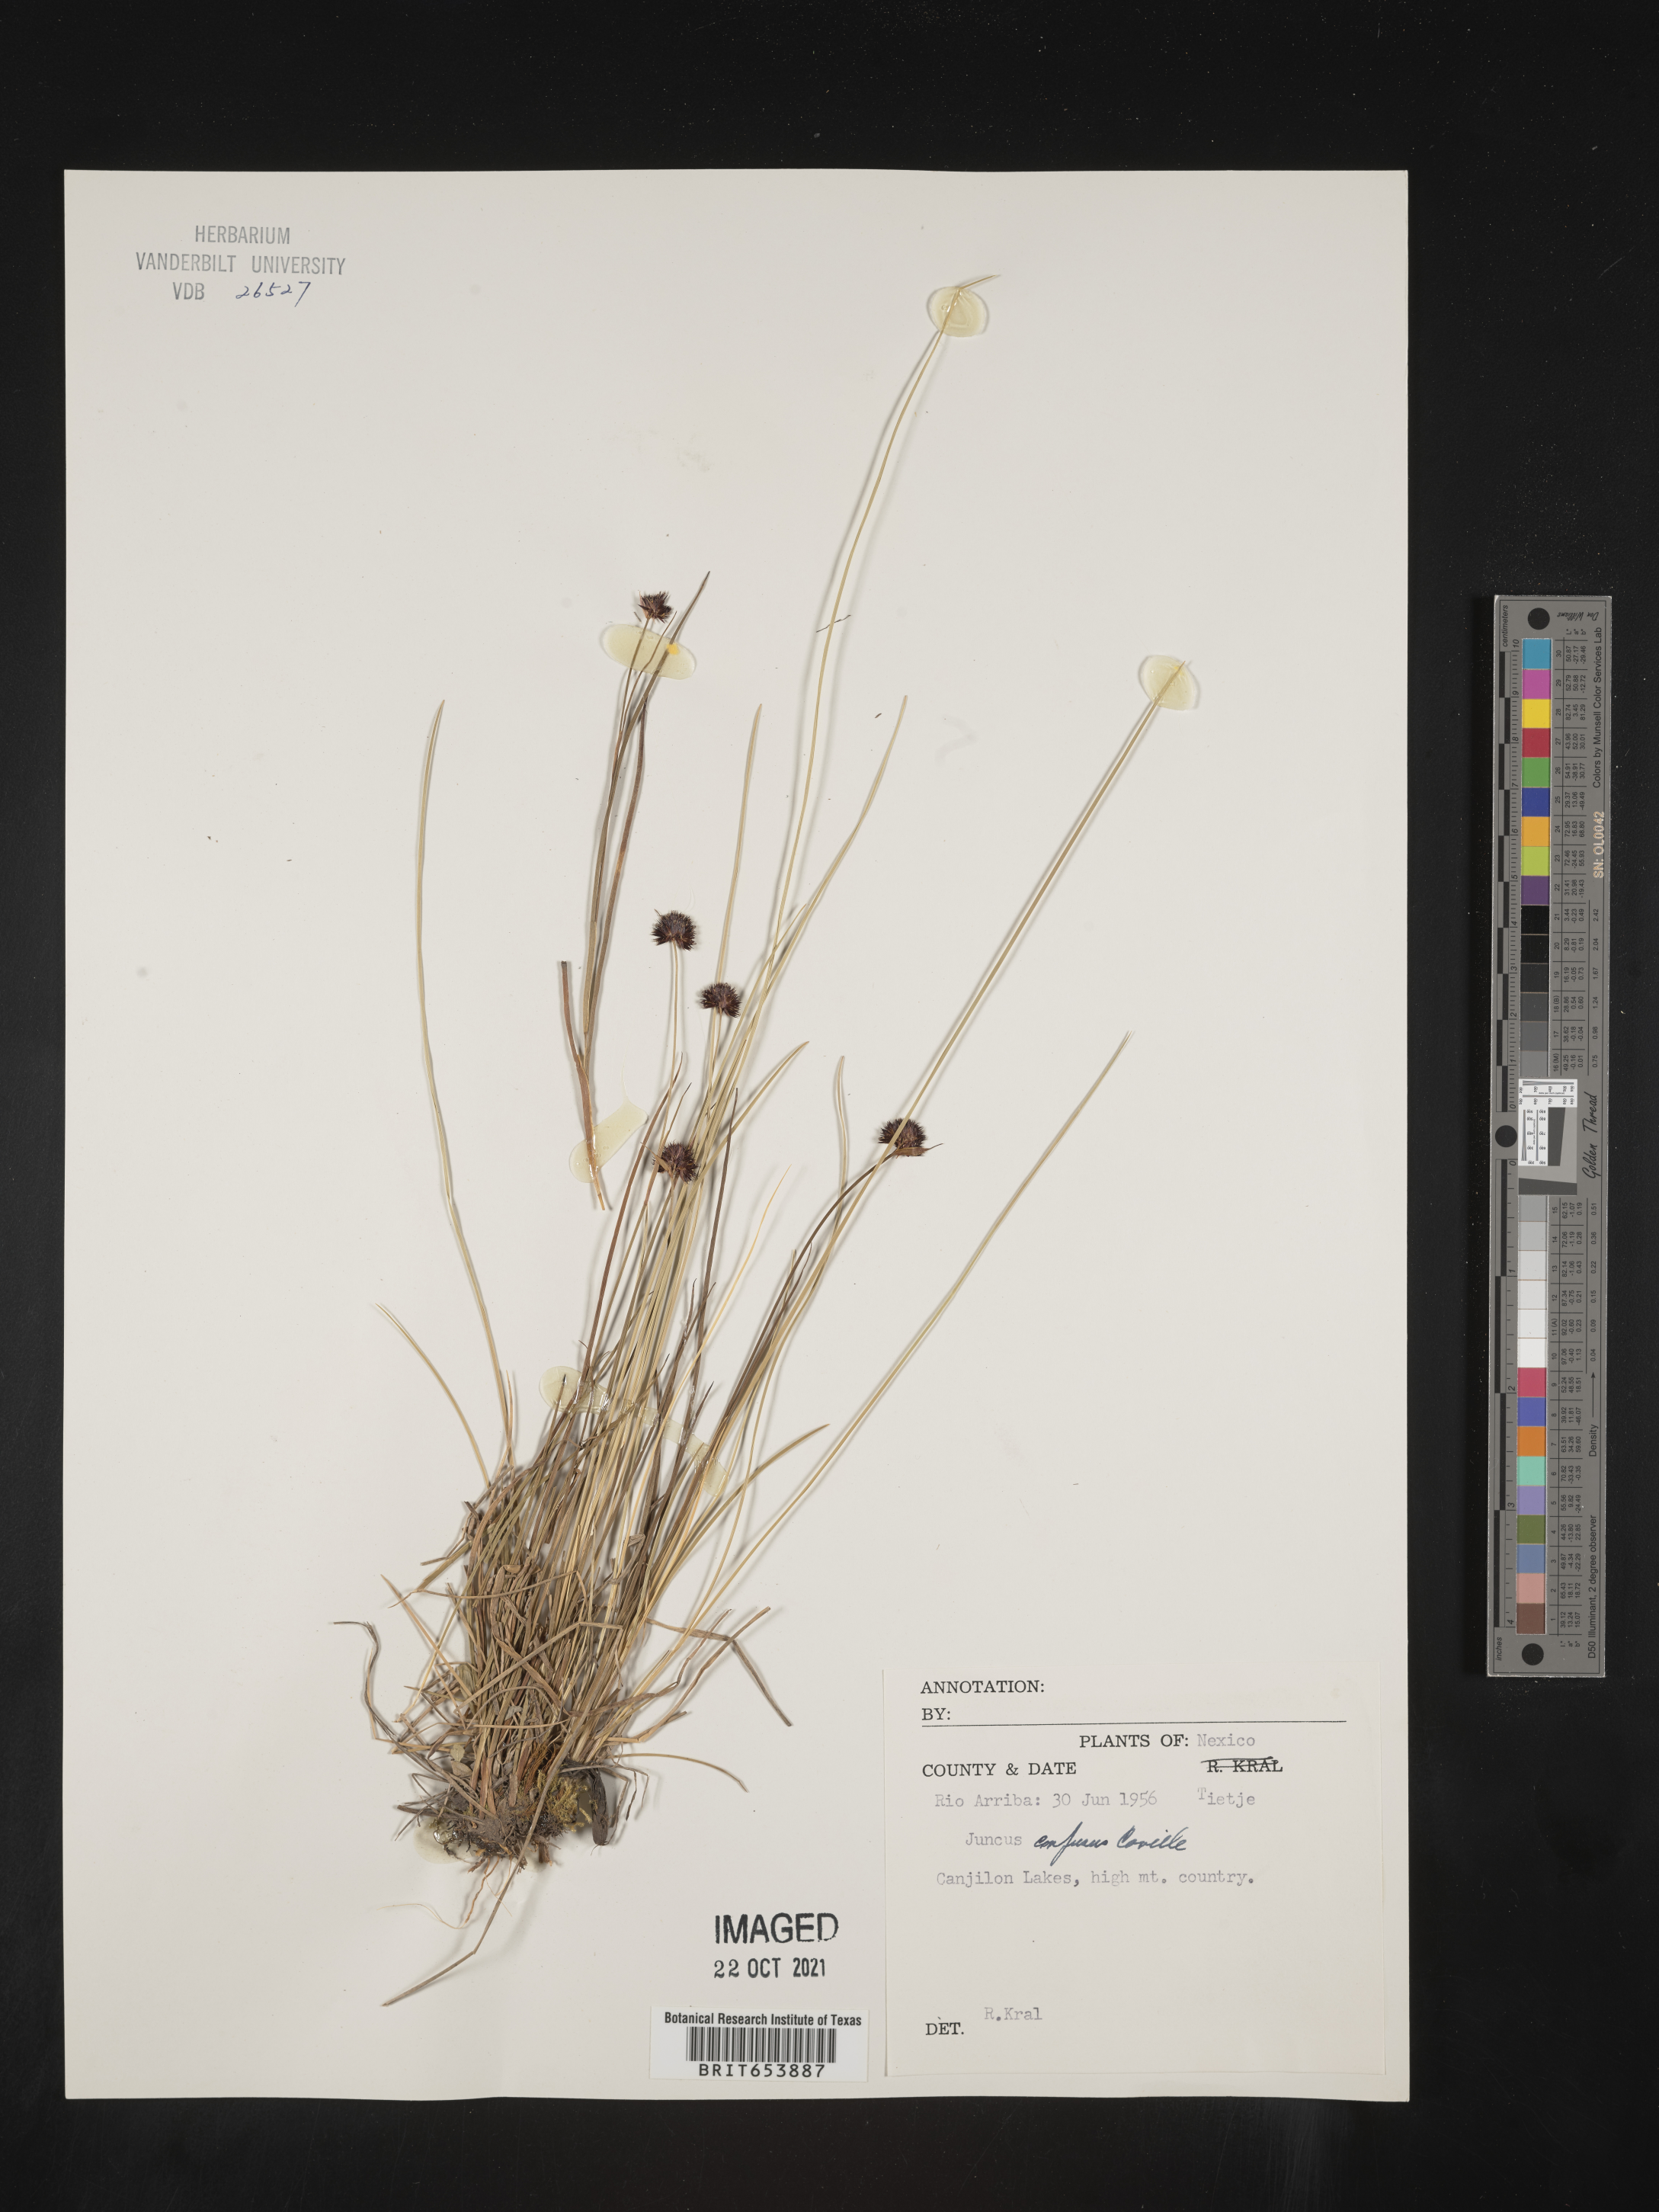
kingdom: Plantae
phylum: Tracheophyta
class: Liliopsida
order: Poales
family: Juncaceae
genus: Juncus
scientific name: Juncus
